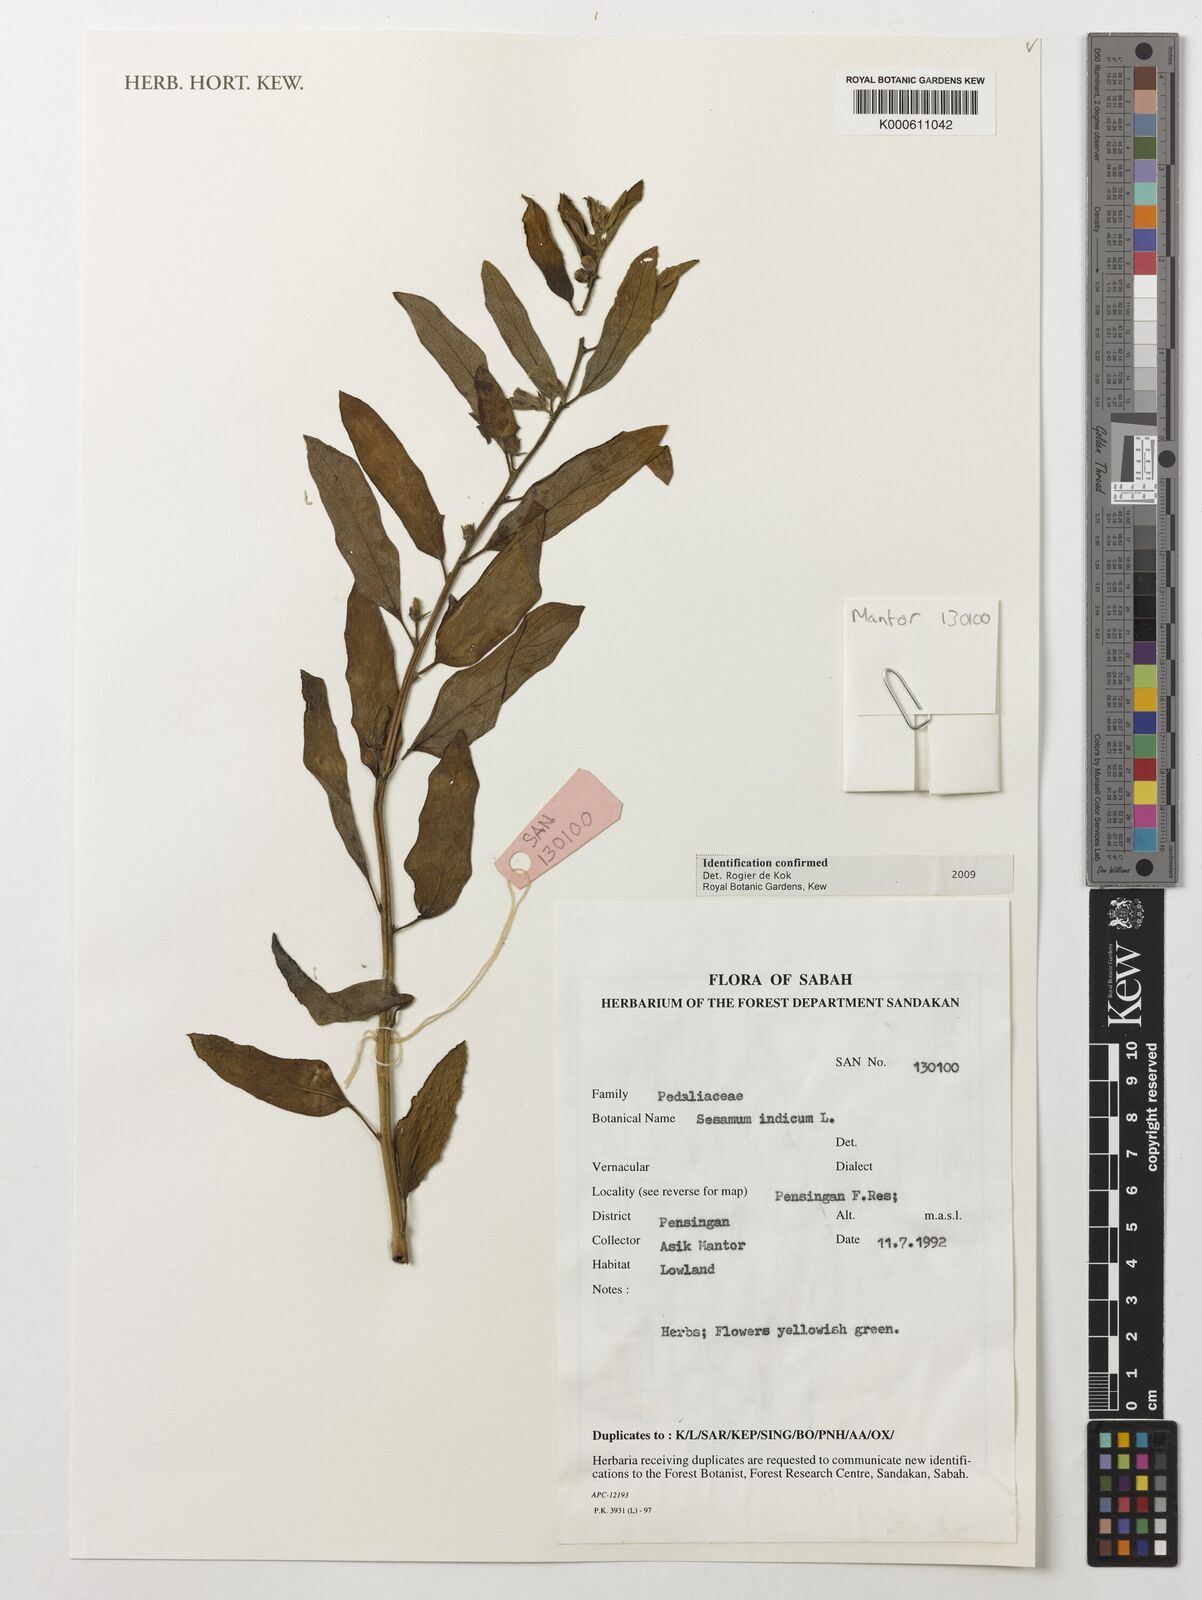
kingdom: Plantae
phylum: Tracheophyta
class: Magnoliopsida
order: Lamiales
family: Pedaliaceae
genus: Sesamum
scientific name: Sesamum indicum
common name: Sesame
